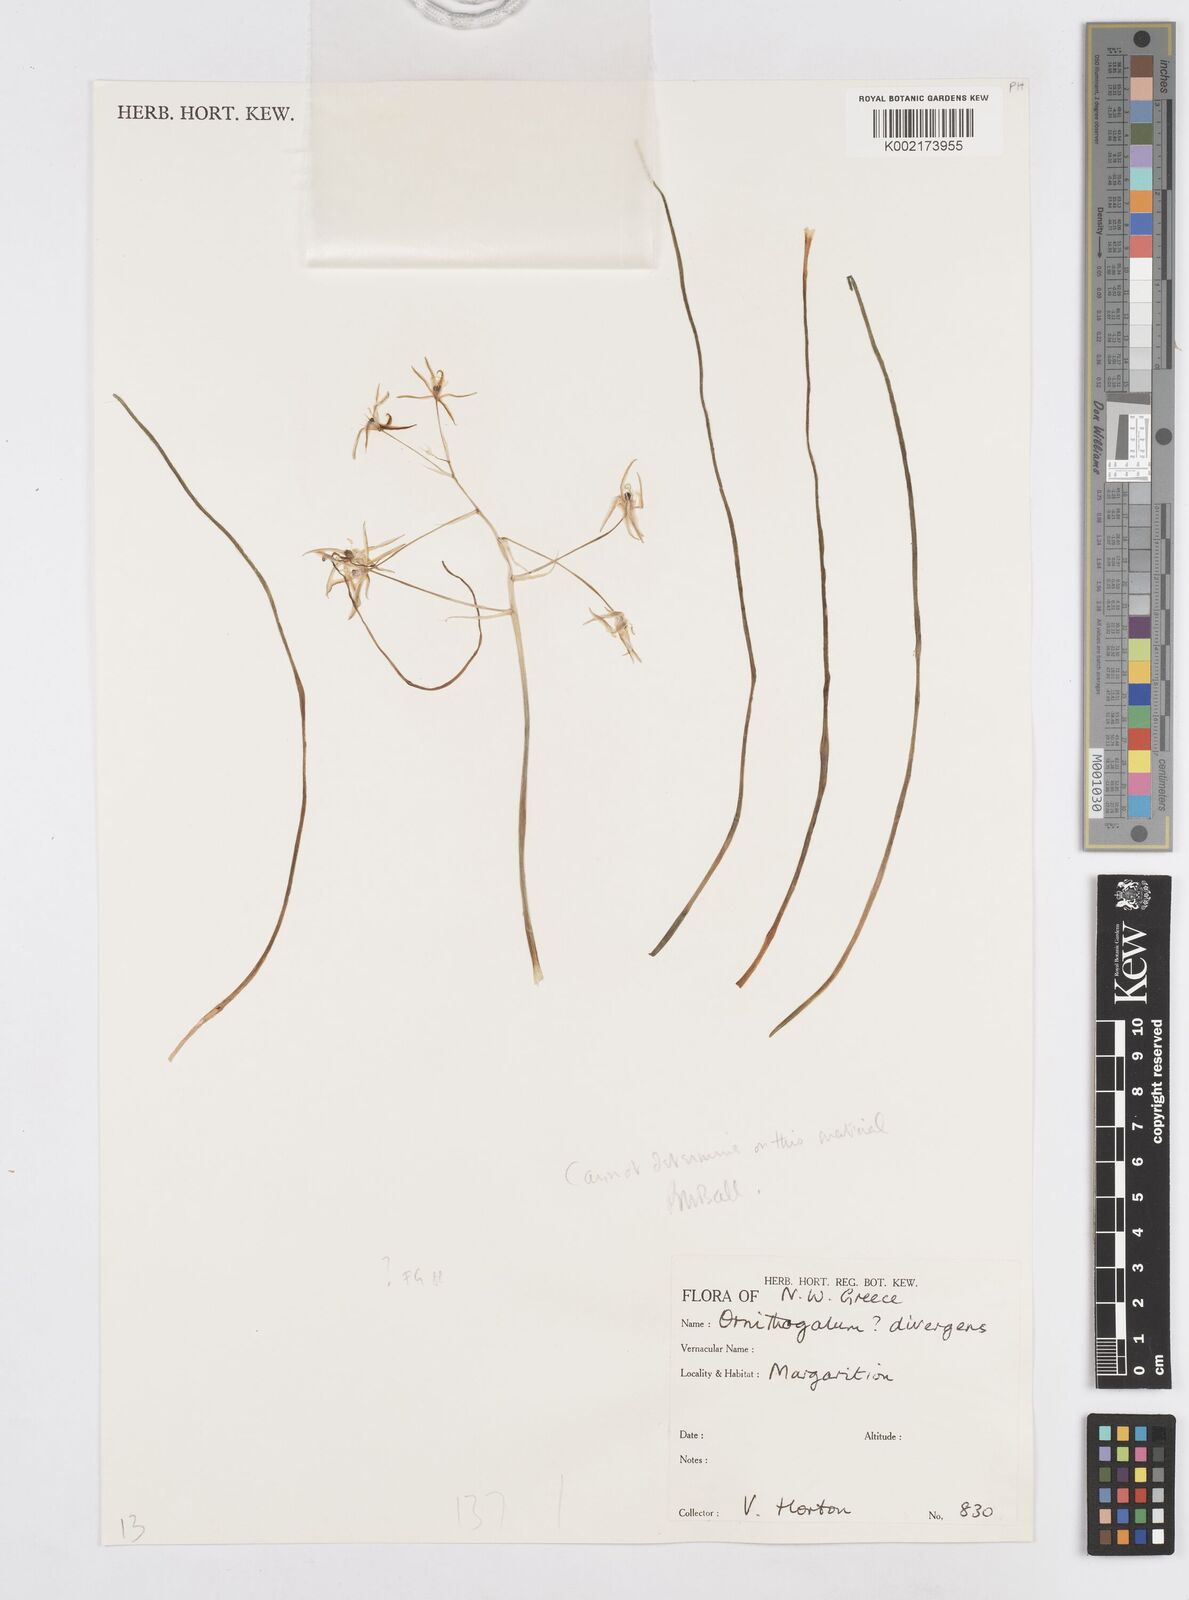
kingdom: Plantae
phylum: Tracheophyta
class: Liliopsida
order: Asparagales
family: Asparagaceae
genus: Ornithogalum
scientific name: Ornithogalum divergens
